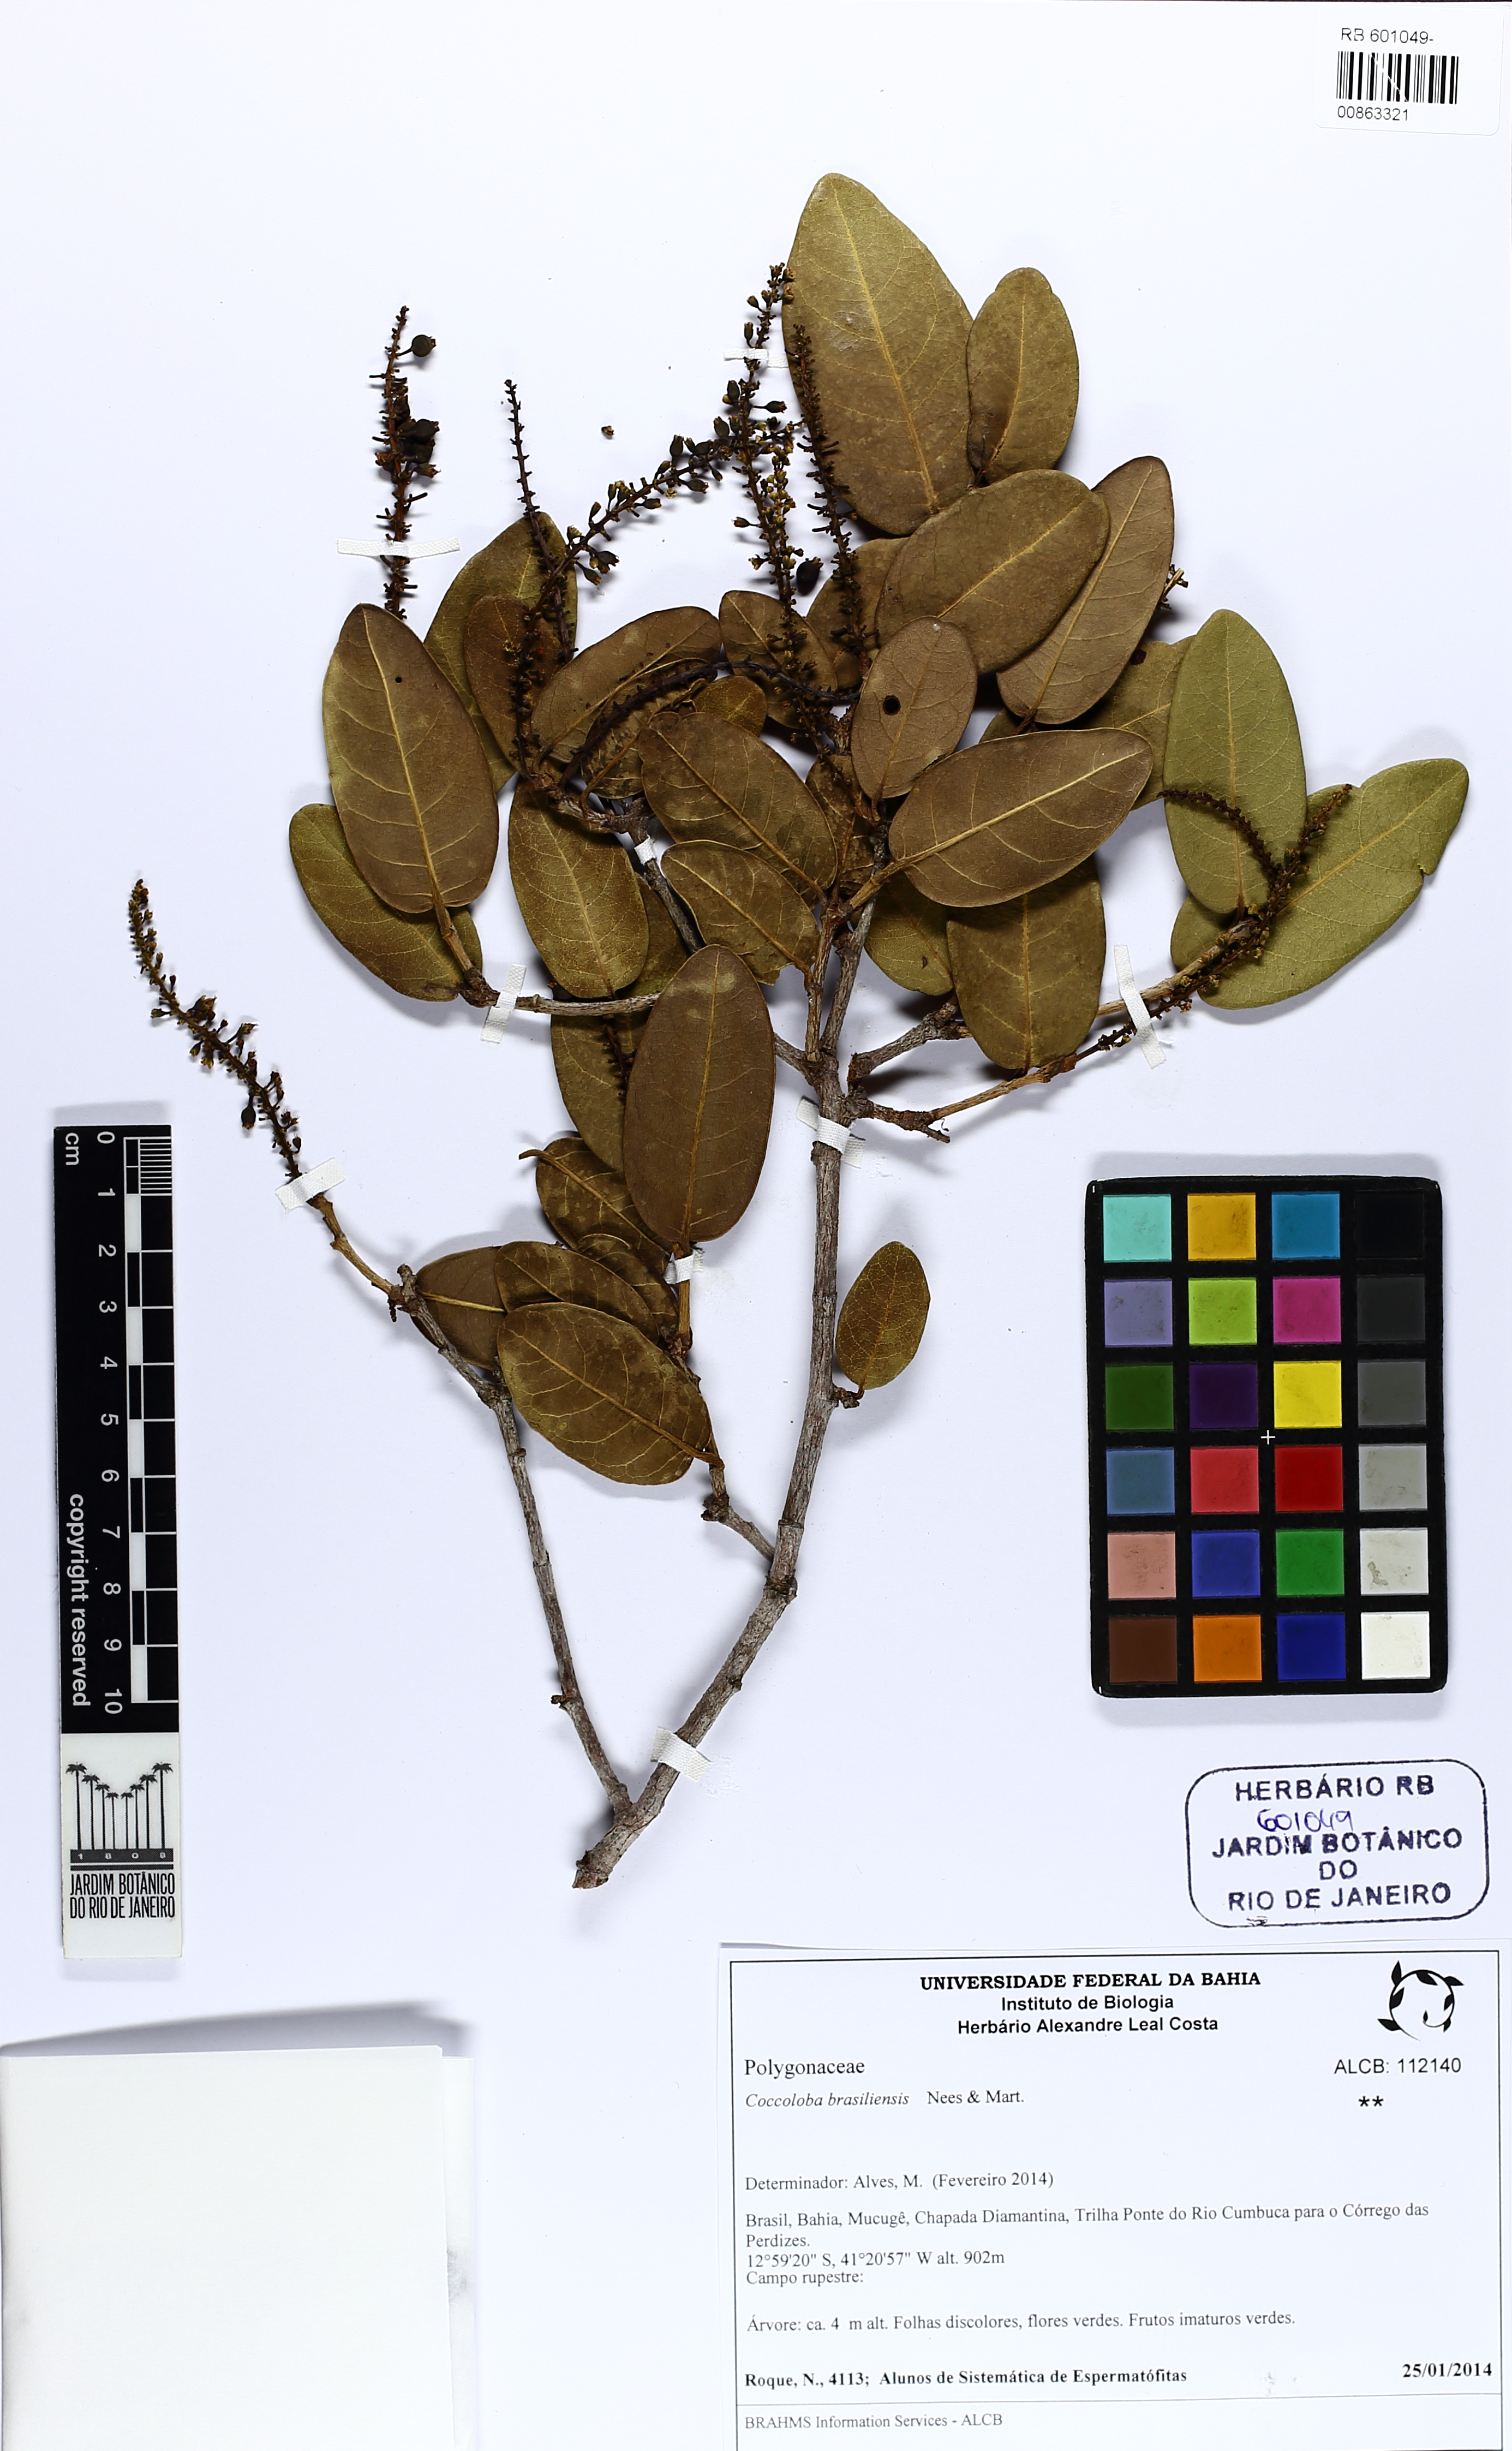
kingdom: Plantae
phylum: Tracheophyta
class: Magnoliopsida
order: Caryophyllales
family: Polygonaceae
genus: Coccoloba
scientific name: Coccoloba brasiliensis
